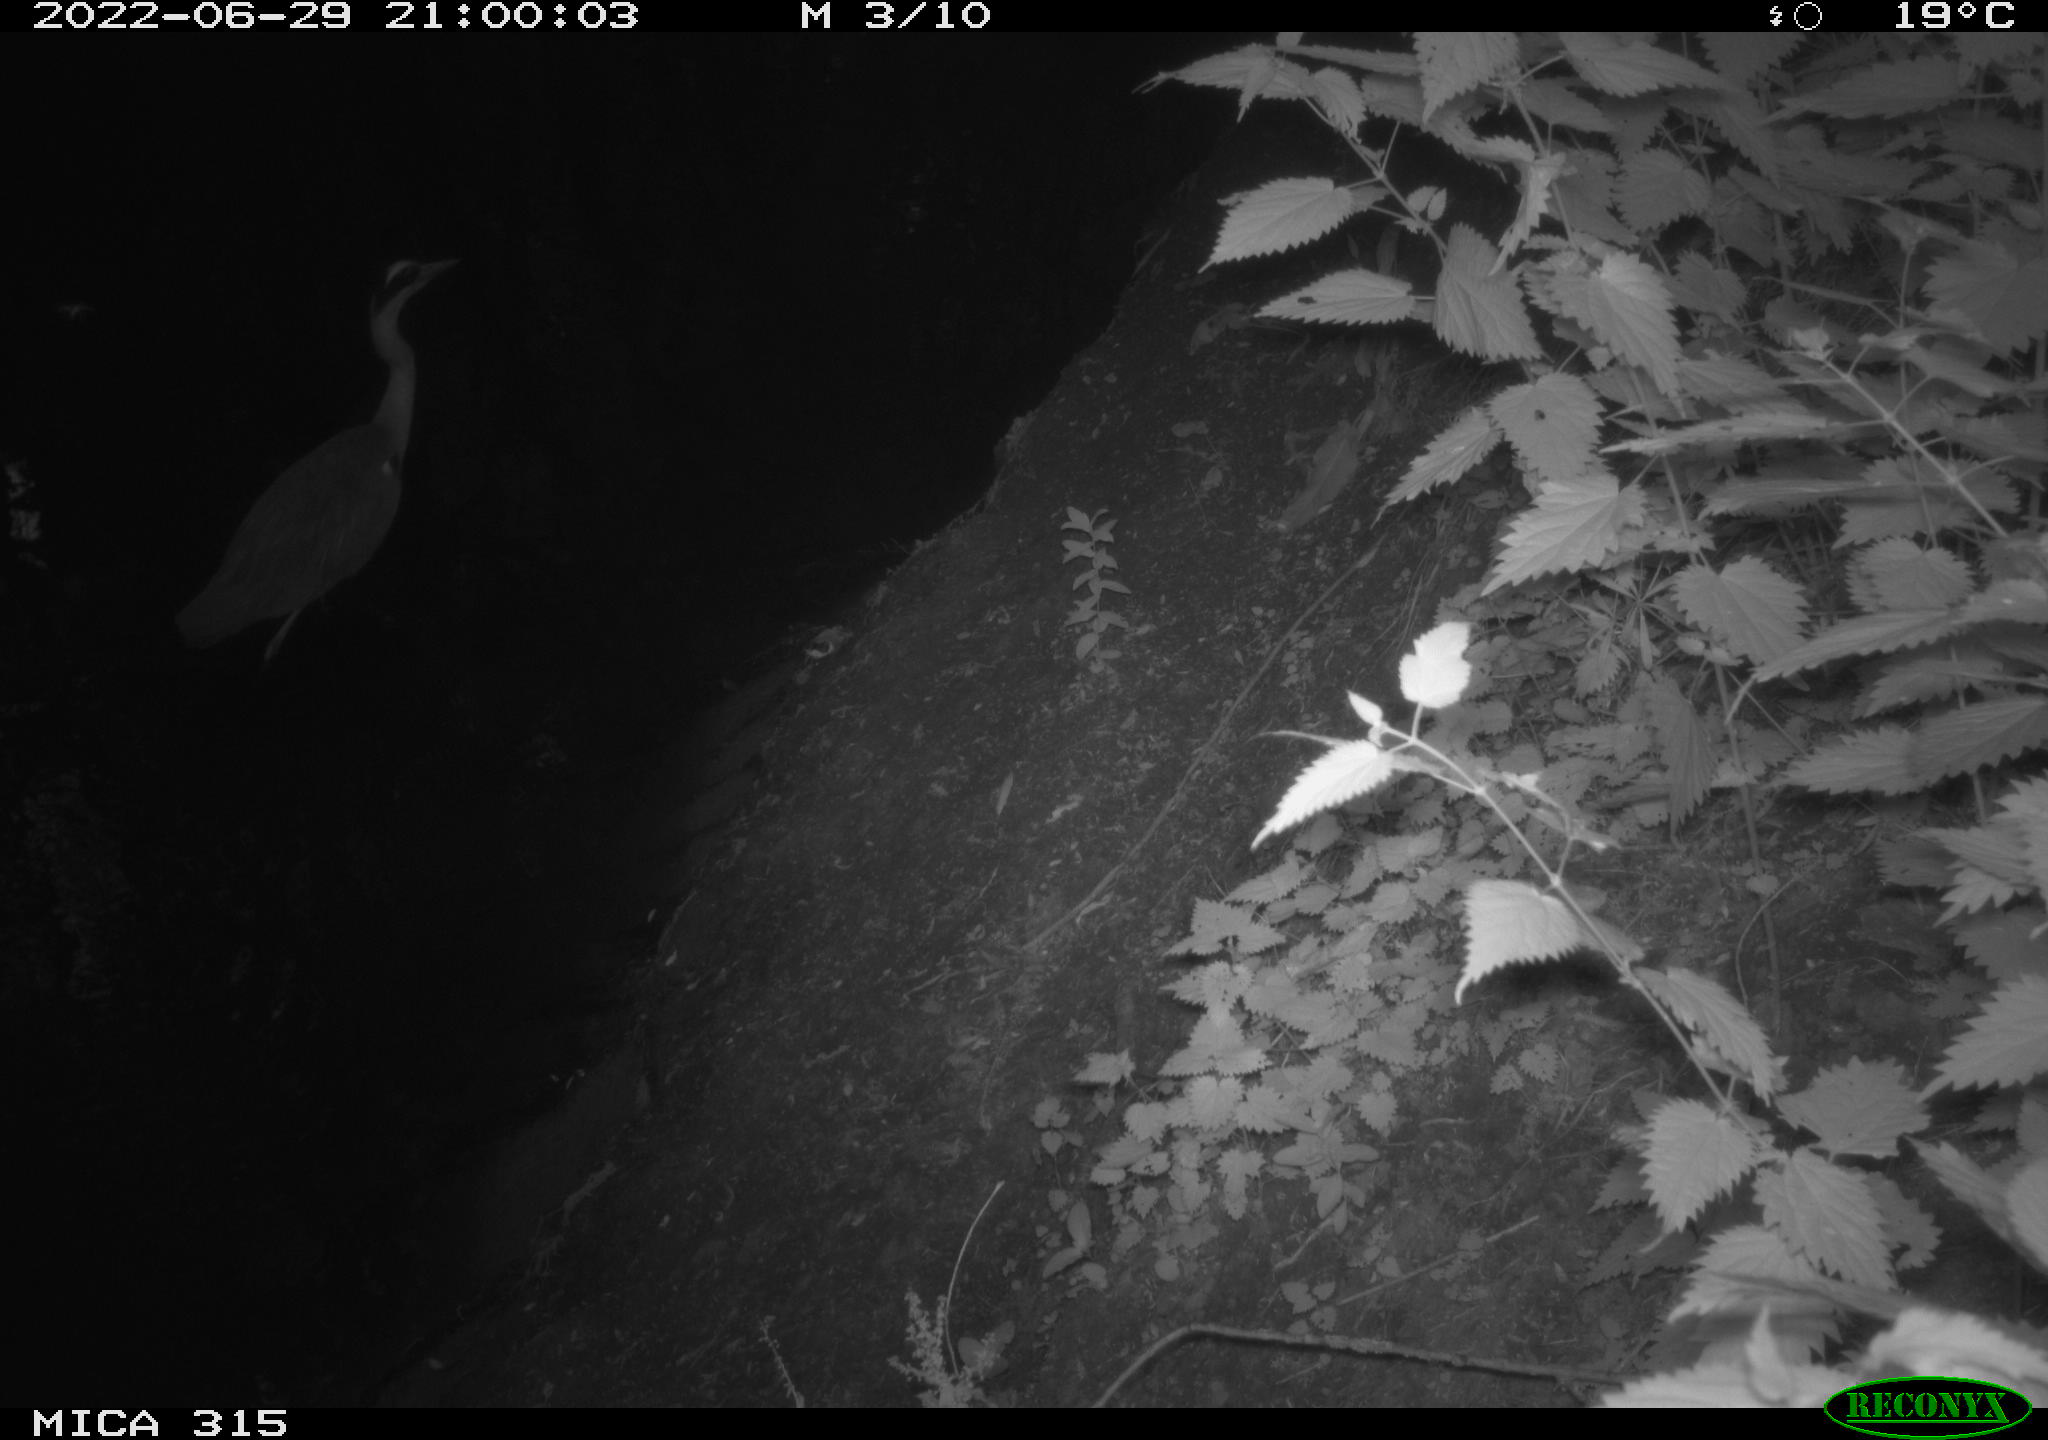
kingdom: Animalia
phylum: Chordata
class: Aves
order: Pelecaniformes
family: Ardeidae
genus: Ardea
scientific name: Ardea cinerea
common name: Grey heron
